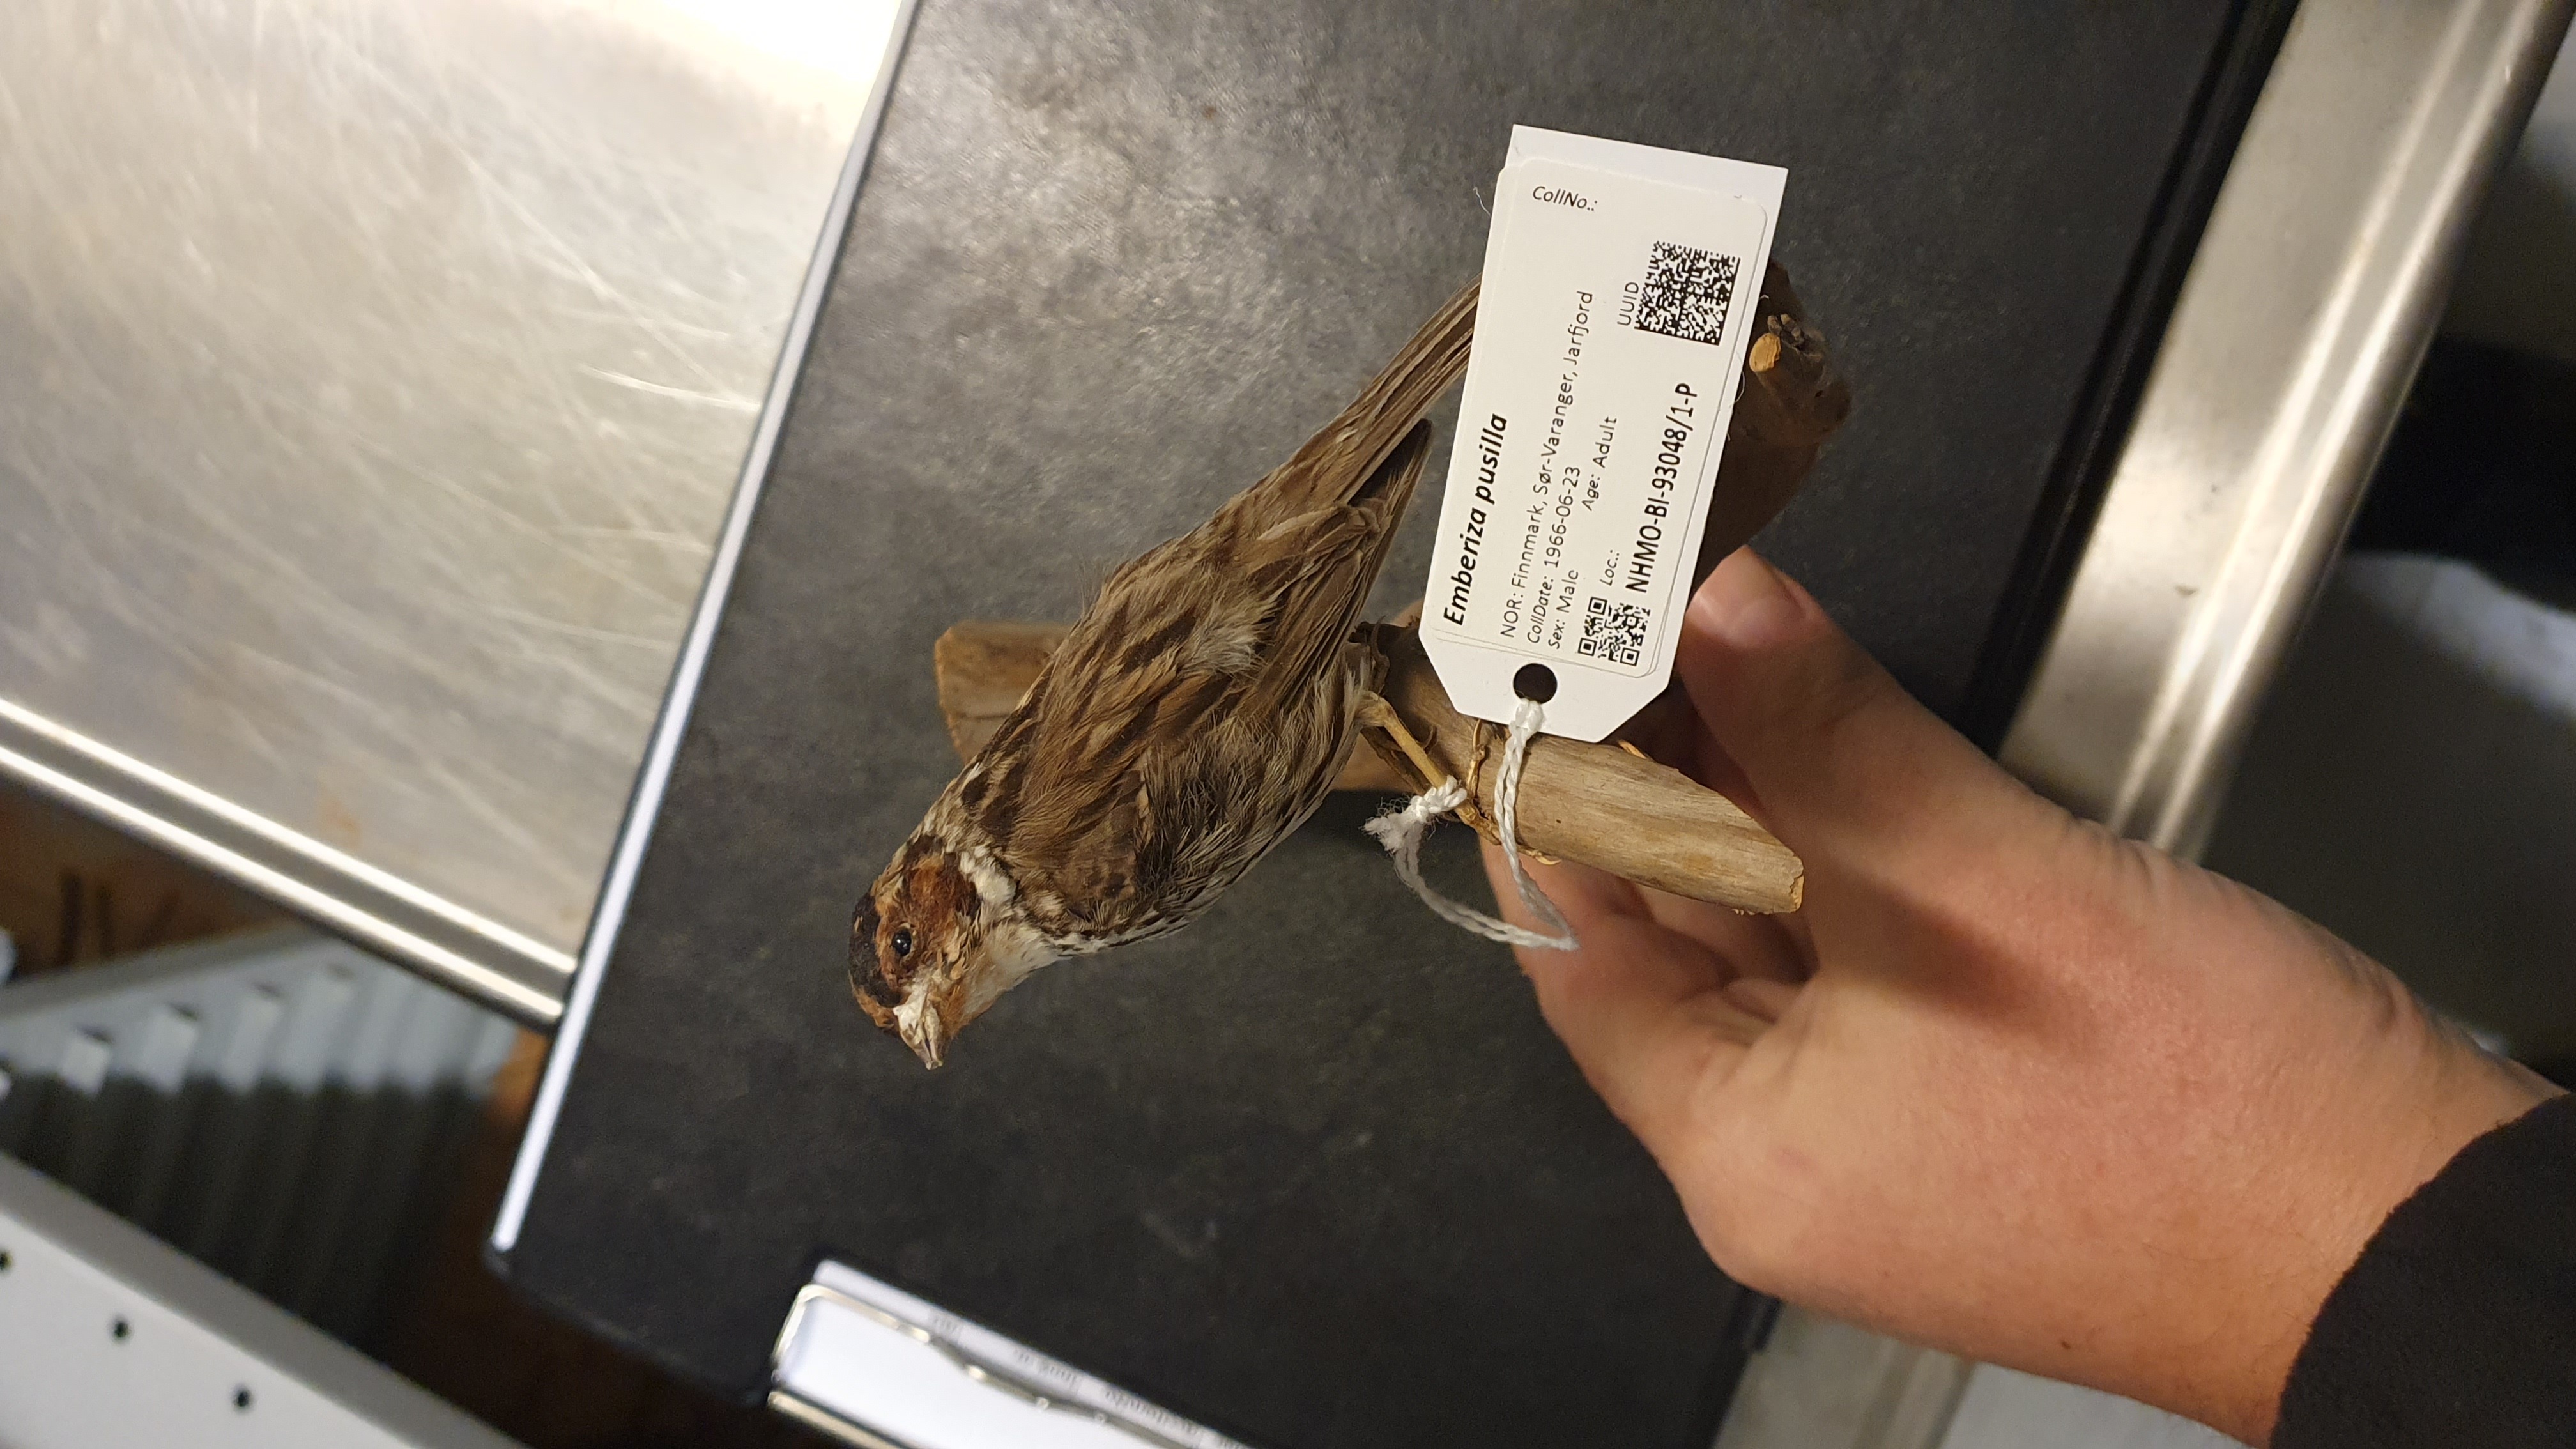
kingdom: Animalia
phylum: Chordata
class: Aves
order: Passeriformes
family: Emberizidae
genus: Emberiza
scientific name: Emberiza pusilla
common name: Little bunting
